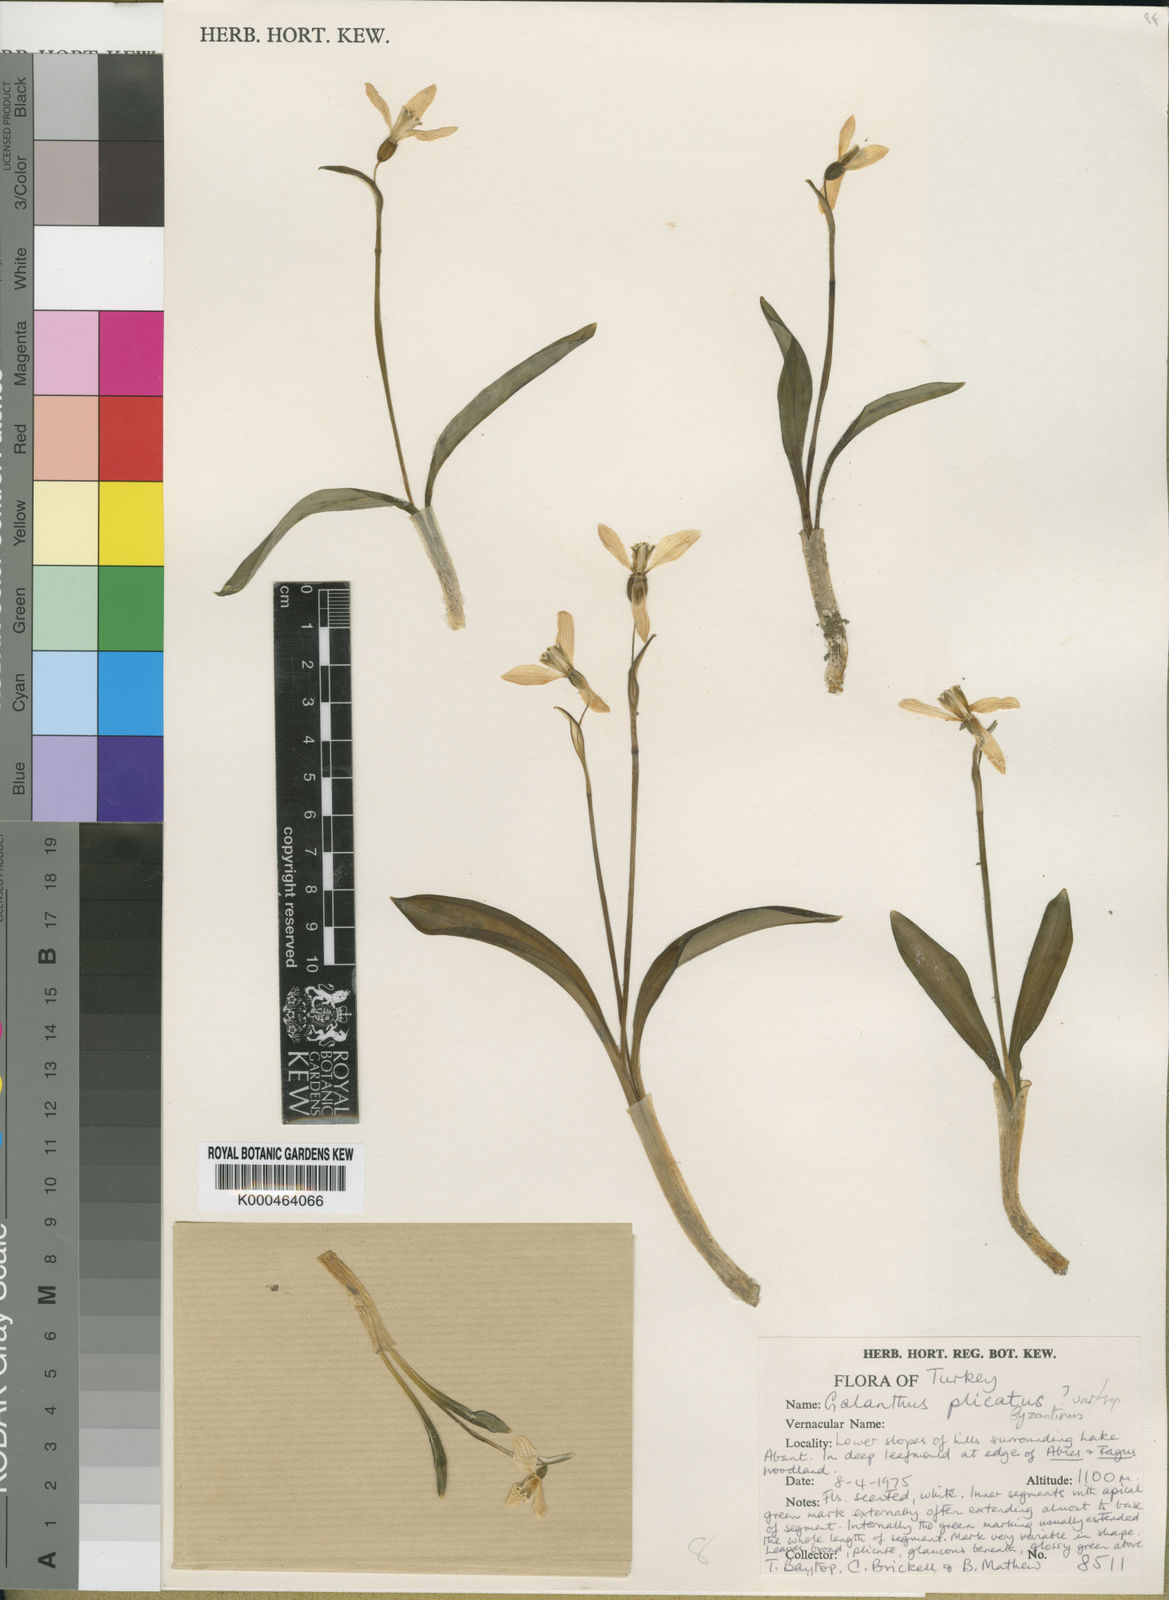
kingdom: Plantae
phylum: Tracheophyta
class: Liliopsida
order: Asparagales
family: Amaryllidaceae
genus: Galanthus
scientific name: Galanthus
